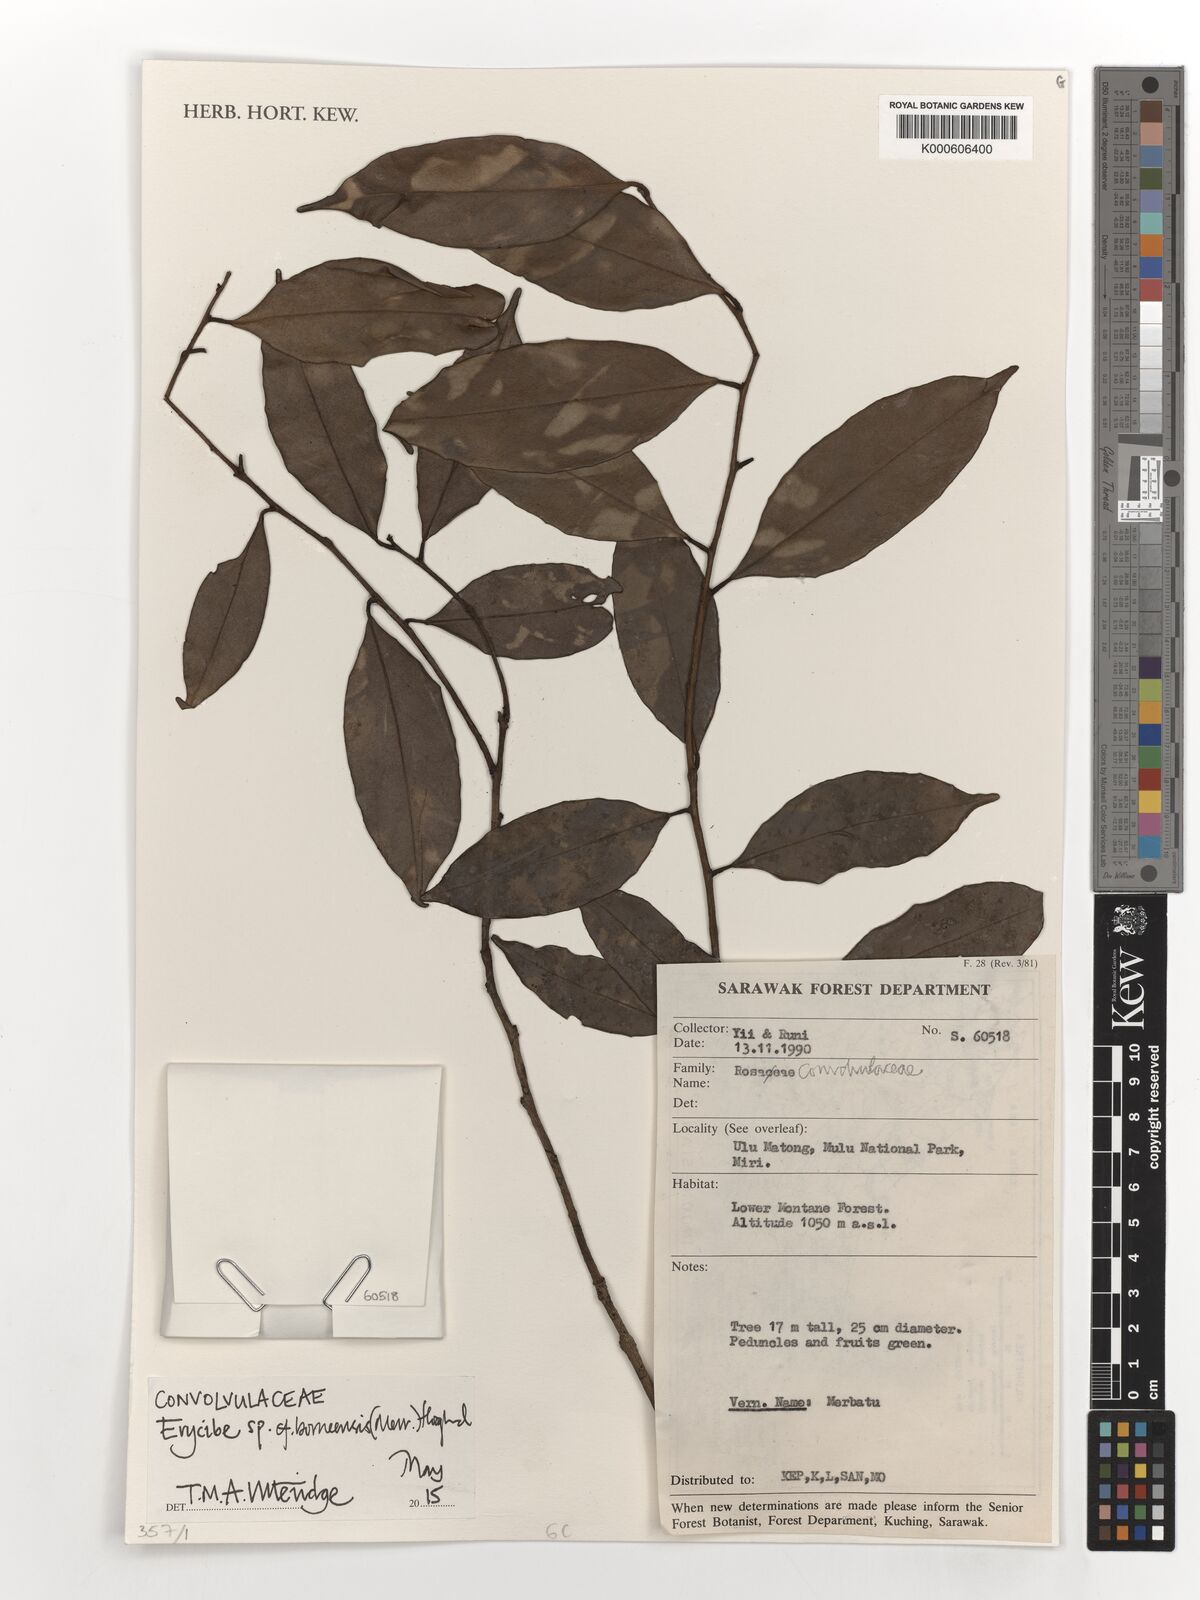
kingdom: Plantae
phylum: Tracheophyta
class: Magnoliopsida
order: Solanales
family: Convolvulaceae
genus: Erycibe
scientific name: Erycibe
